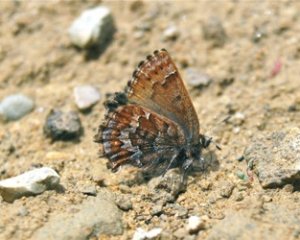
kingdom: Animalia
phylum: Arthropoda
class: Insecta
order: Lepidoptera
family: Lycaenidae
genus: Incisalia
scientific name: Incisalia niphon
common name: Eastern Pine Elfin
